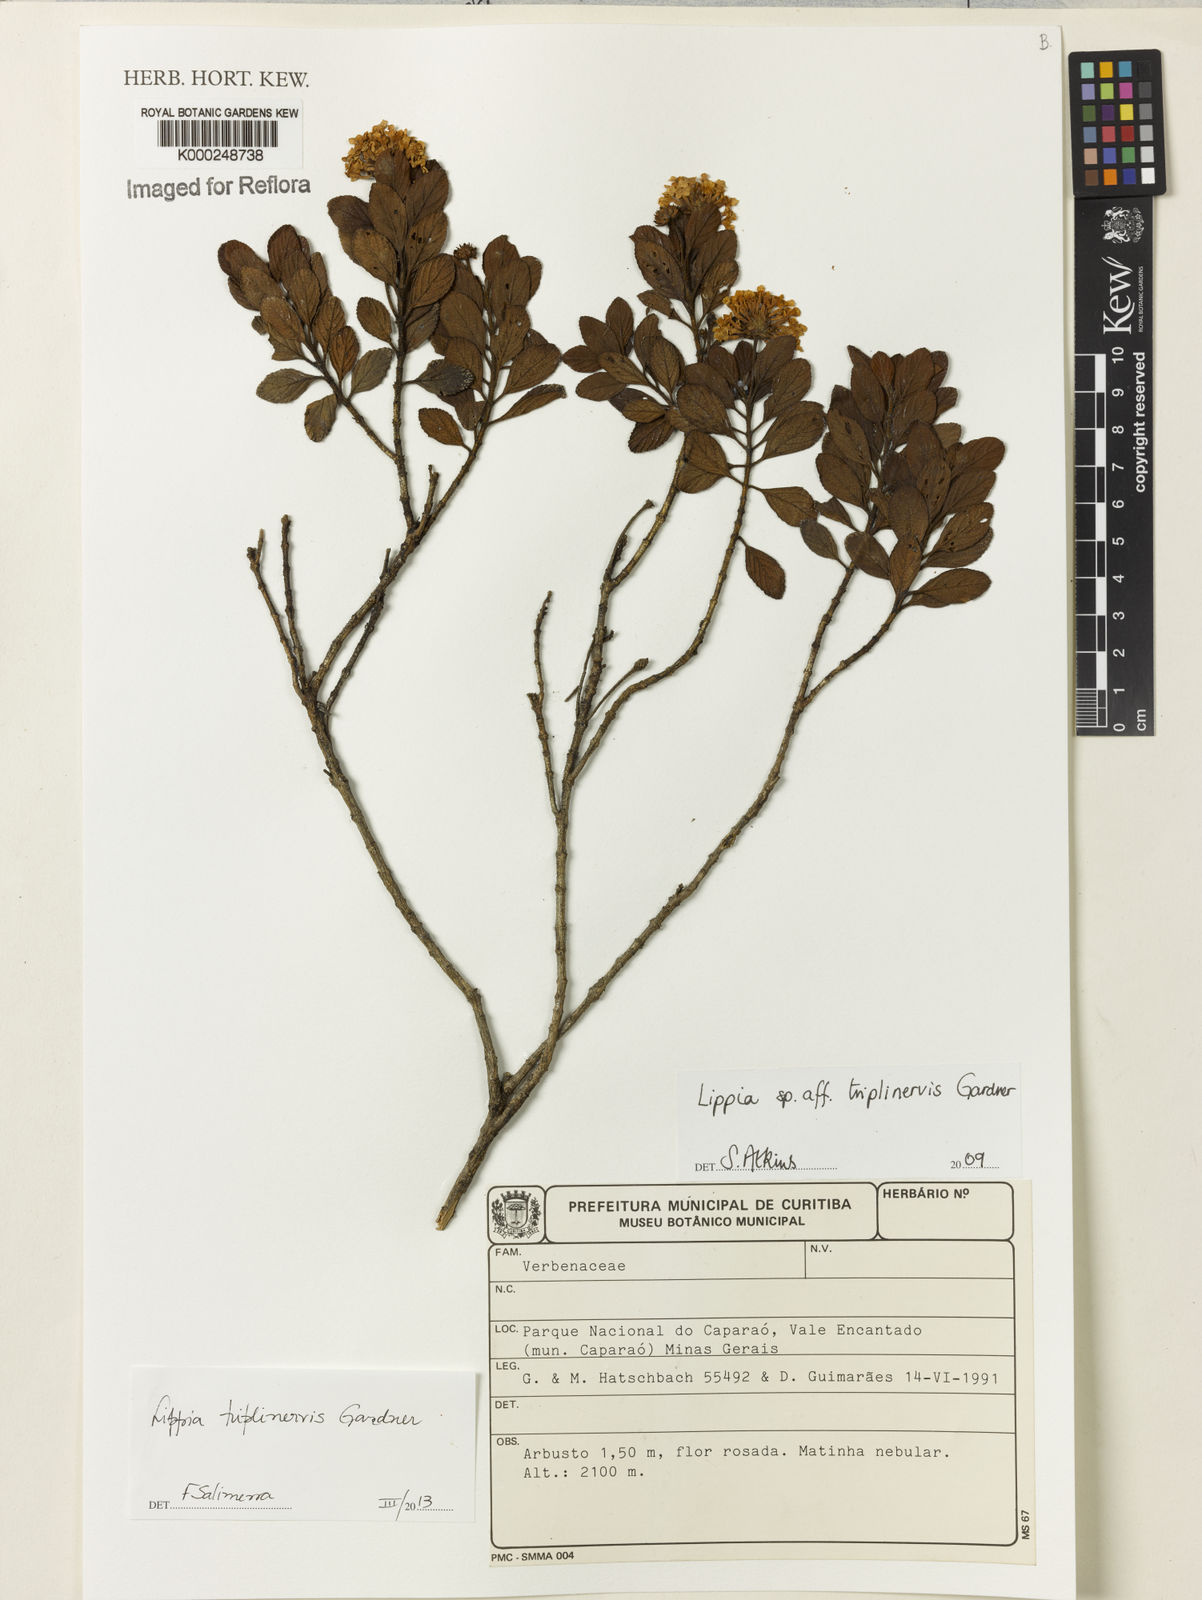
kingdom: Plantae
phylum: Tracheophyta
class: Magnoliopsida
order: Lamiales
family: Verbenaceae
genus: Lantana
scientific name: Lantana
